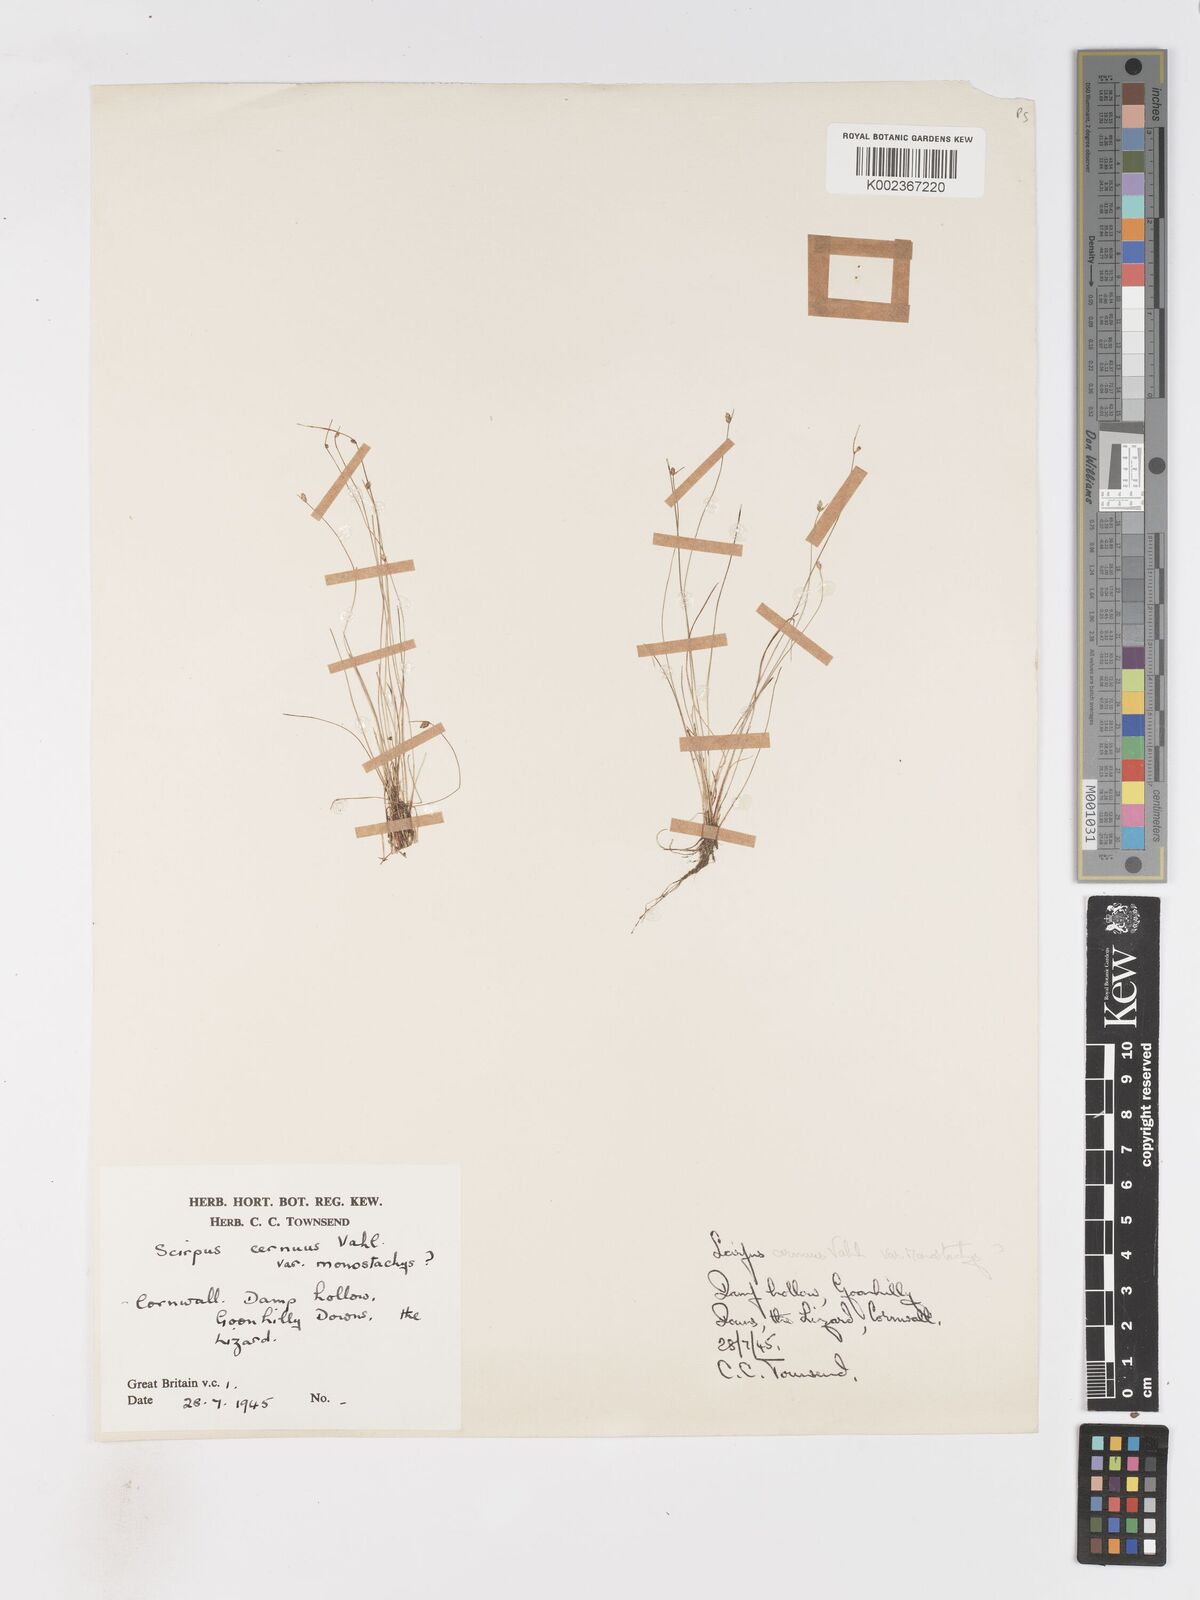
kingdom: Plantae
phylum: Tracheophyta
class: Liliopsida
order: Poales
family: Cyperaceae
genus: Isolepis
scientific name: Isolepis cernua
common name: Slender club-rush
